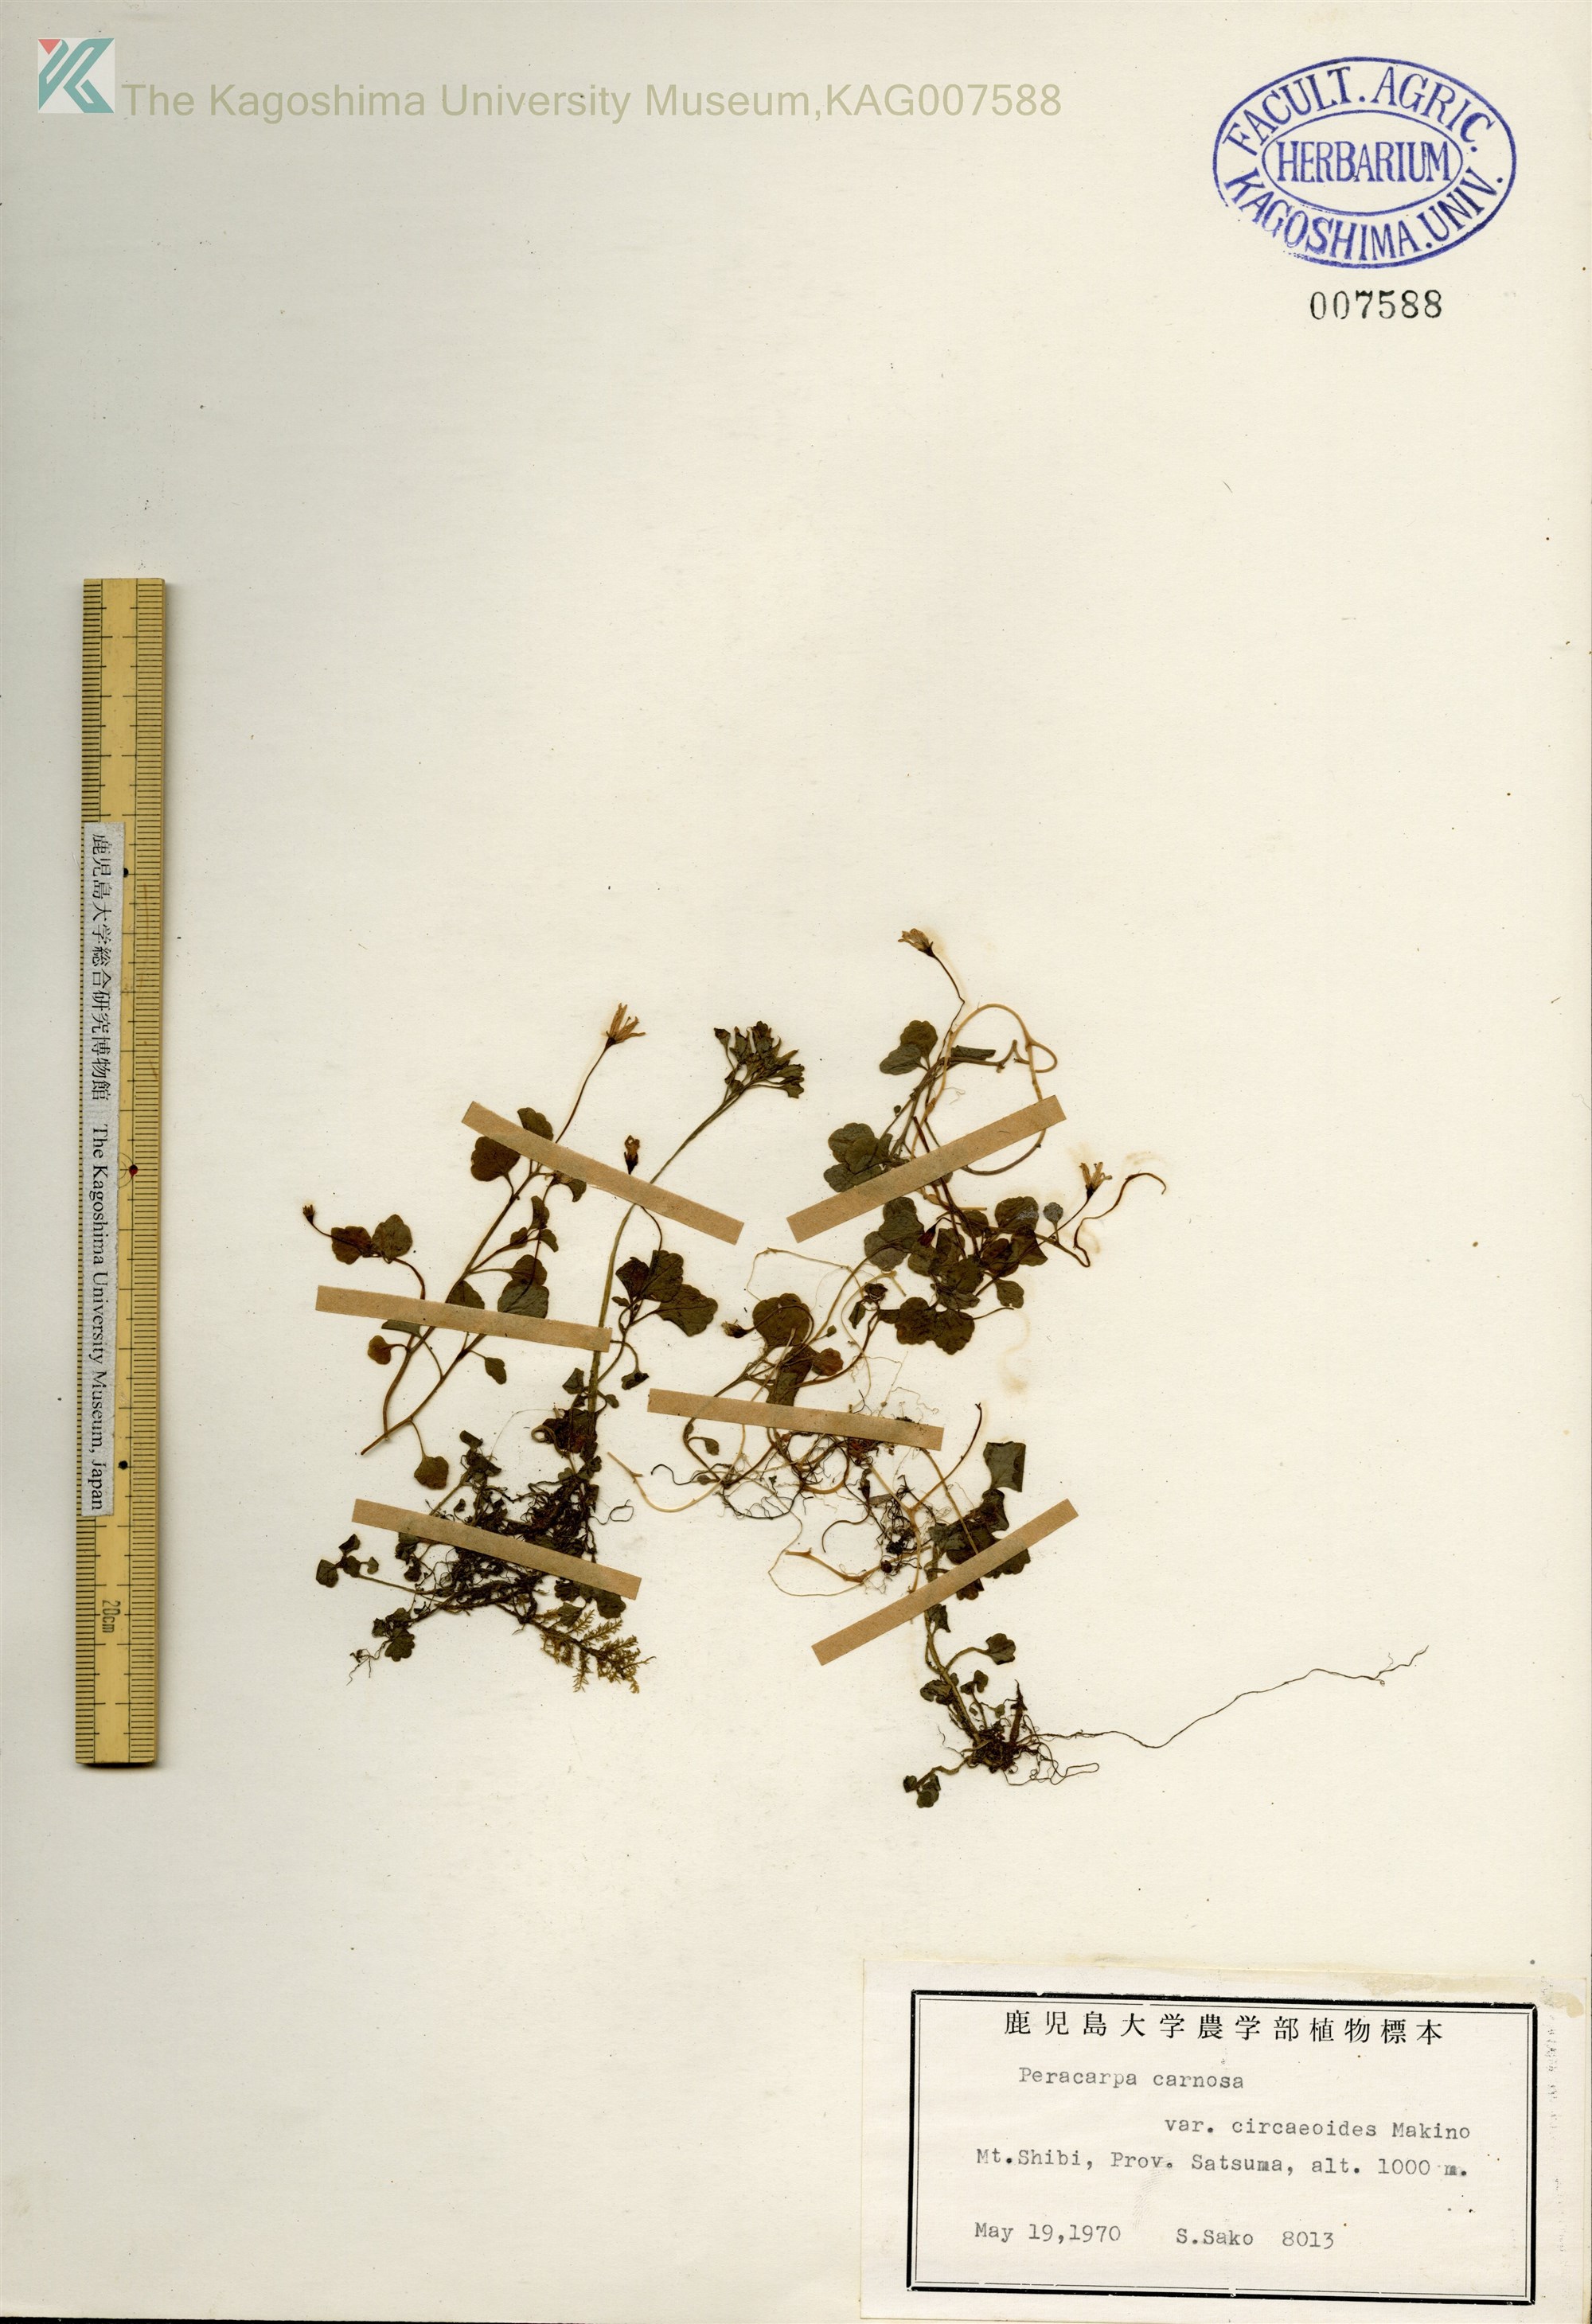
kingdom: Plantae
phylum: Tracheophyta
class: Magnoliopsida
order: Asterales
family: Campanulaceae
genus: Peracarpa
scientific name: Peracarpa carnosa
